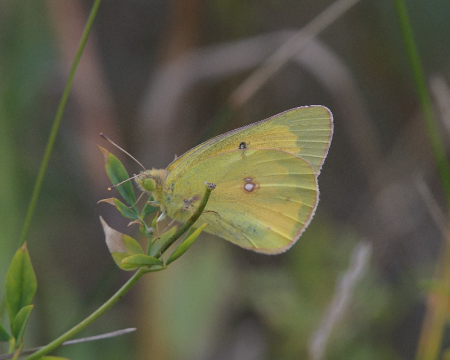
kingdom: Animalia
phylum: Arthropoda
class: Insecta
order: Lepidoptera
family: Pieridae
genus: Colias
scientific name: Colias eurytheme
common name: Orange Sulphur
